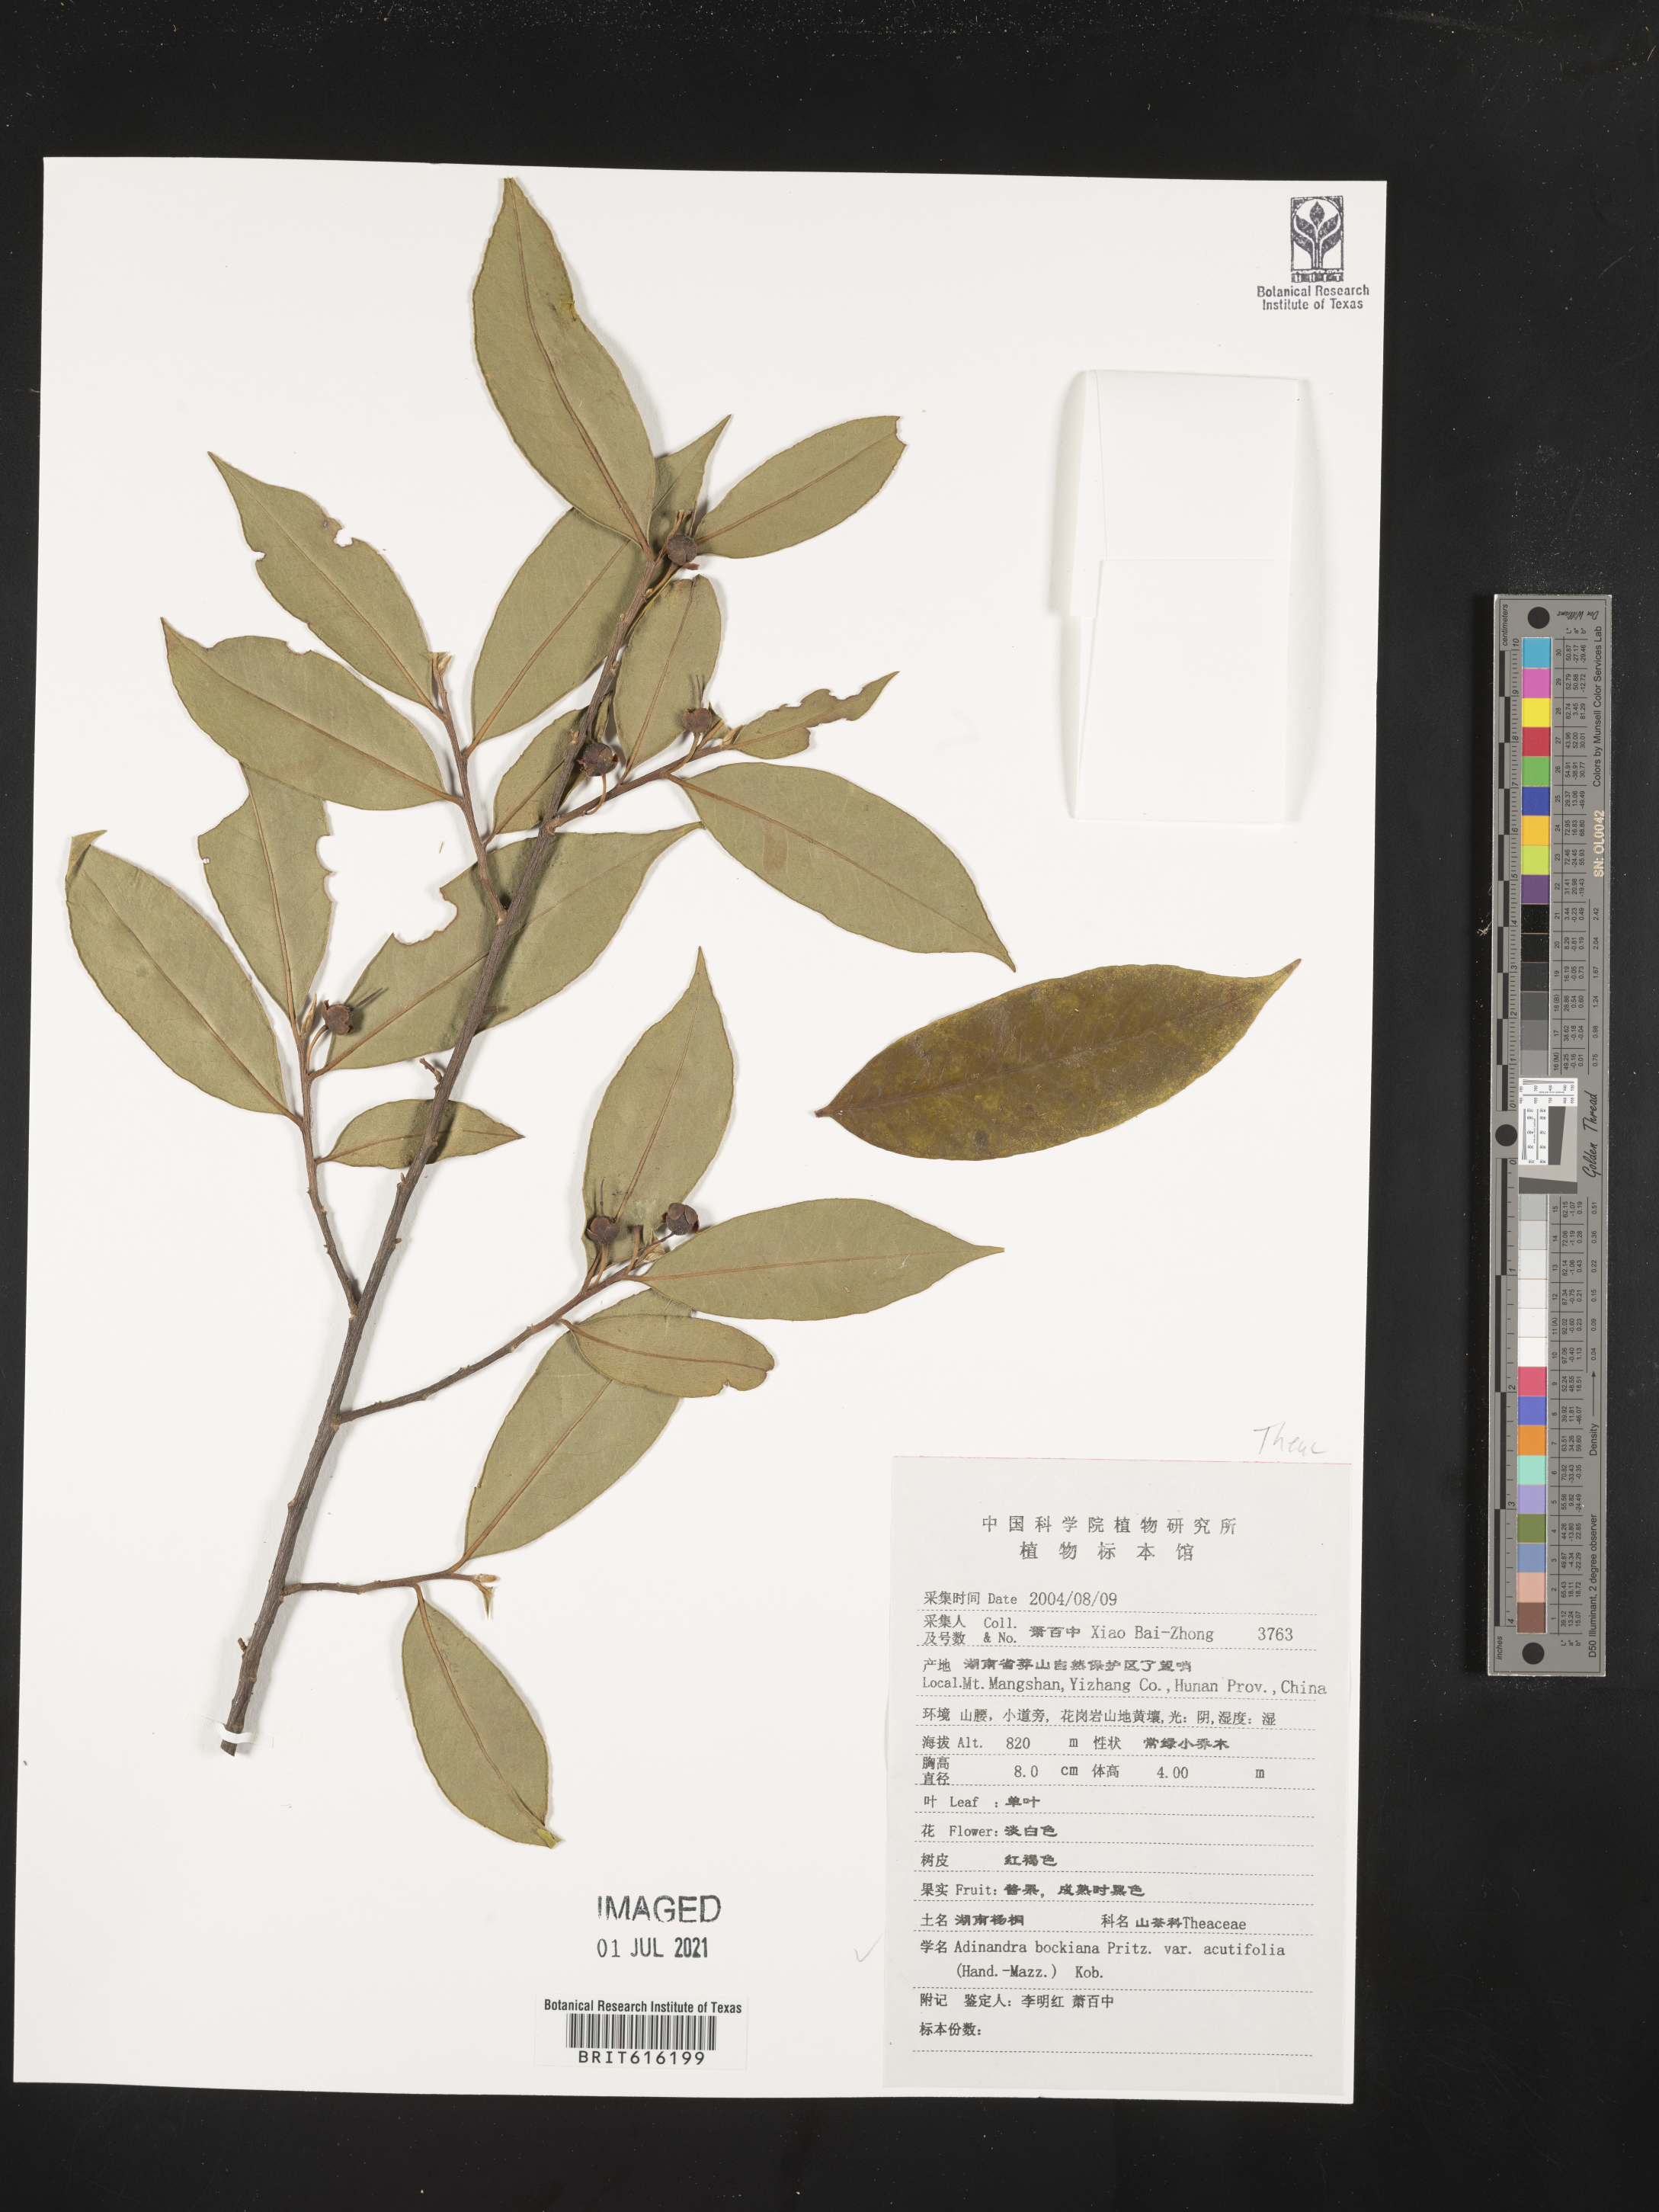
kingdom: Plantae
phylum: Tracheophyta
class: Magnoliopsida
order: Ericales
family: Pentaphylacaceae
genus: Adinandra
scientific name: Adinandra bockiana
